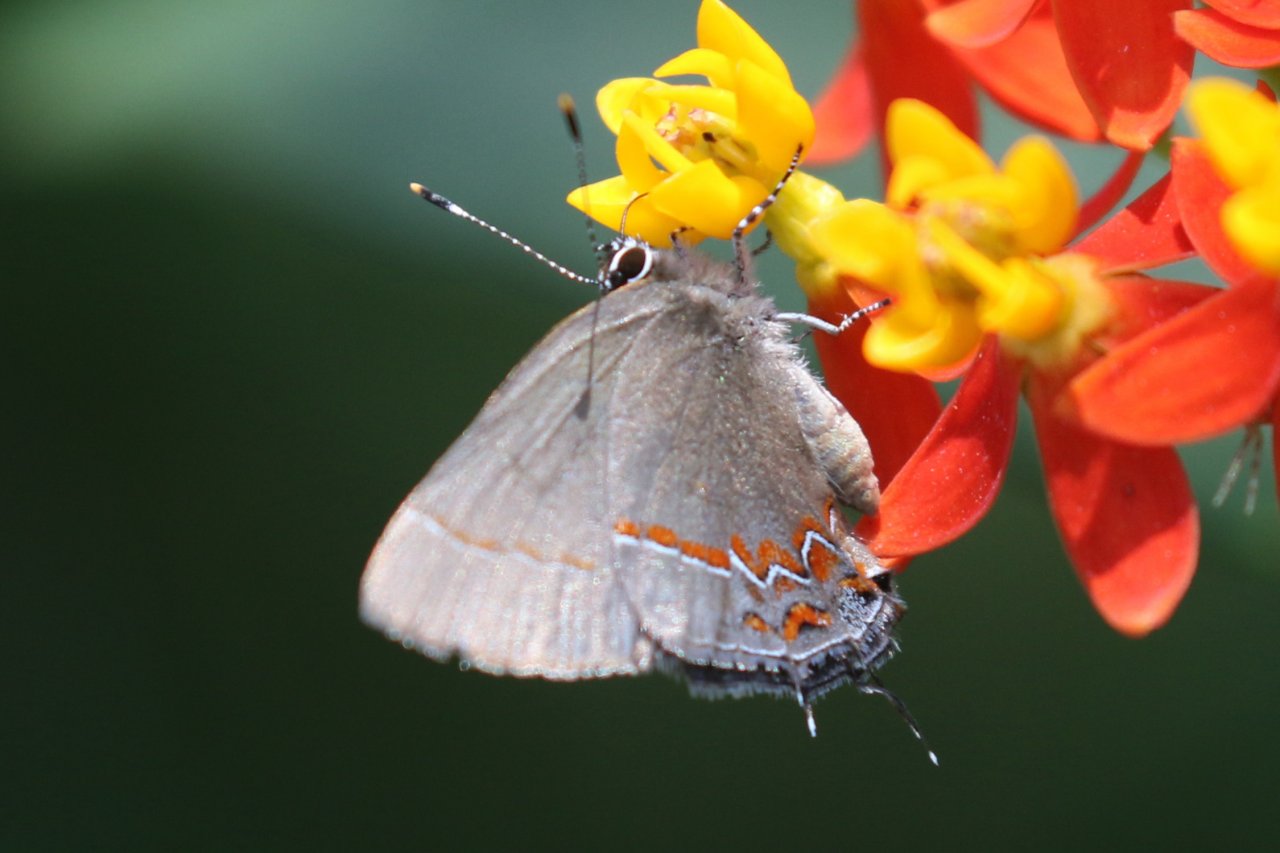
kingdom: Animalia
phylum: Arthropoda
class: Insecta
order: Lepidoptera
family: Lycaenidae
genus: Calycopis
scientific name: Calycopis isobeon
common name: Dusky-blue Groundstreak
